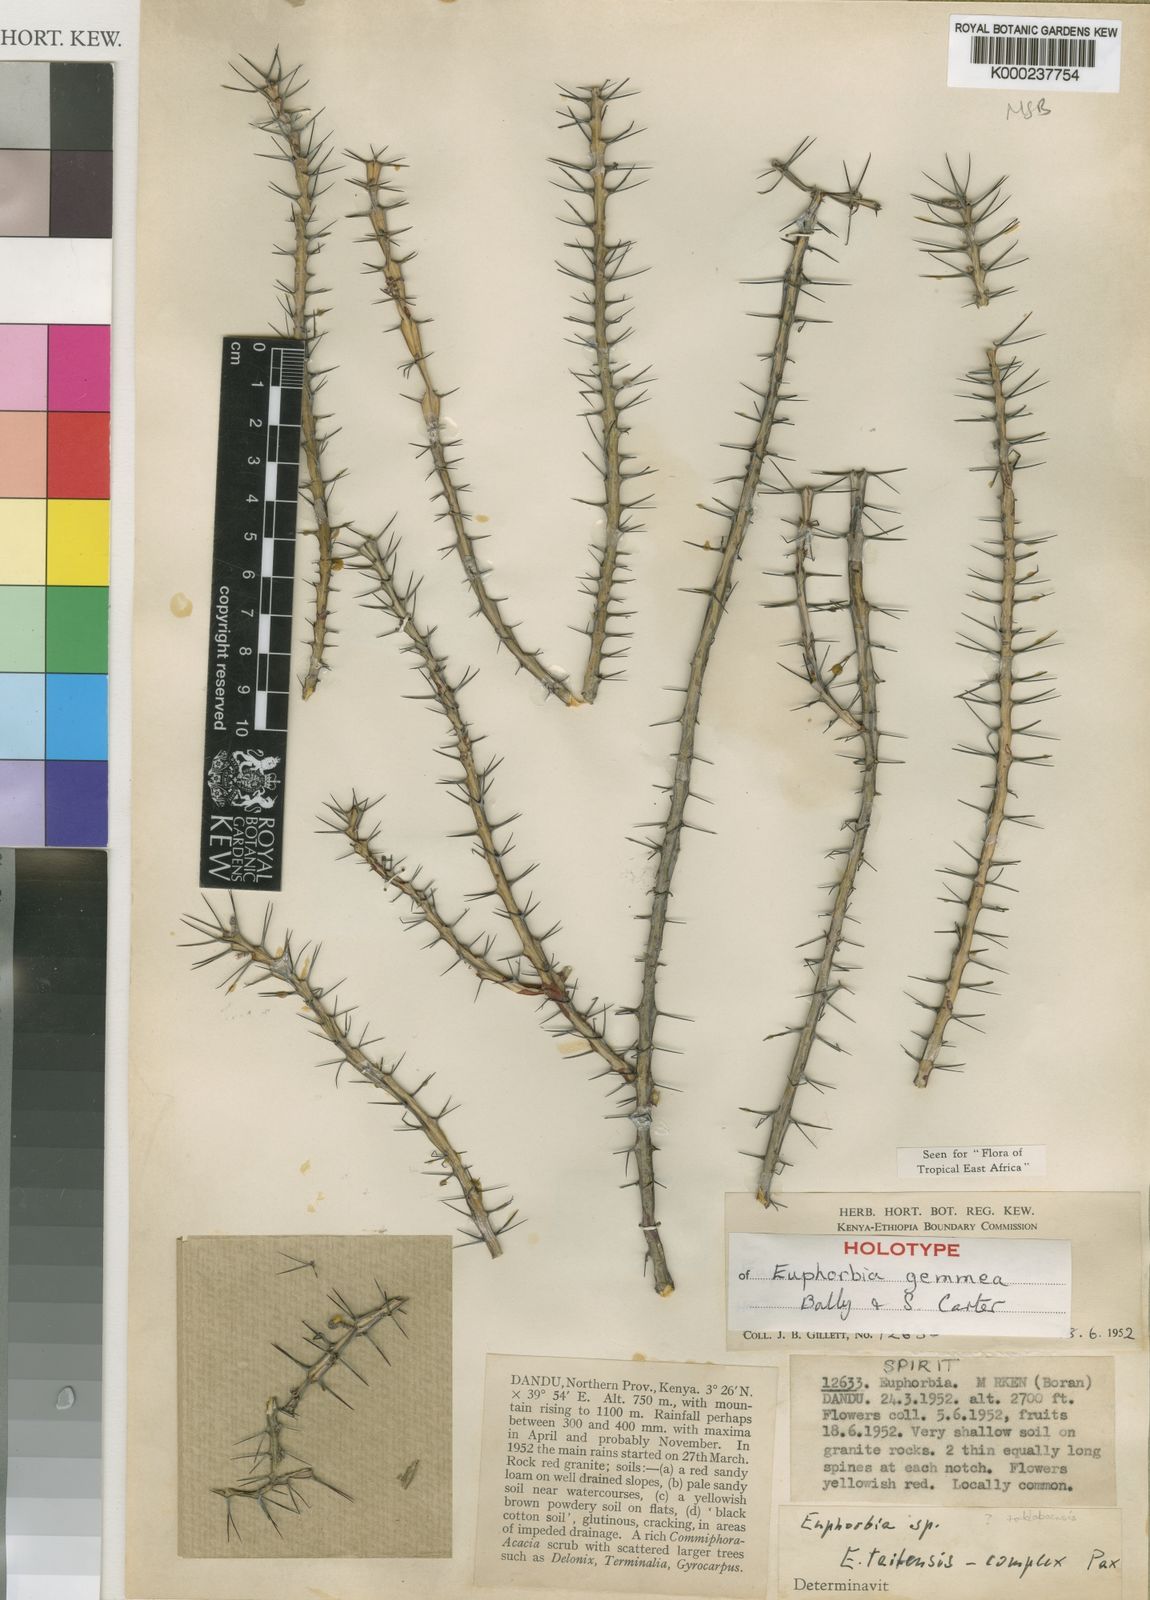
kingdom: Plantae
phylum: Tracheophyta
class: Magnoliopsida
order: Malpighiales
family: Euphorbiaceae
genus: Euphorbia
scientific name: Euphorbia gemmea
